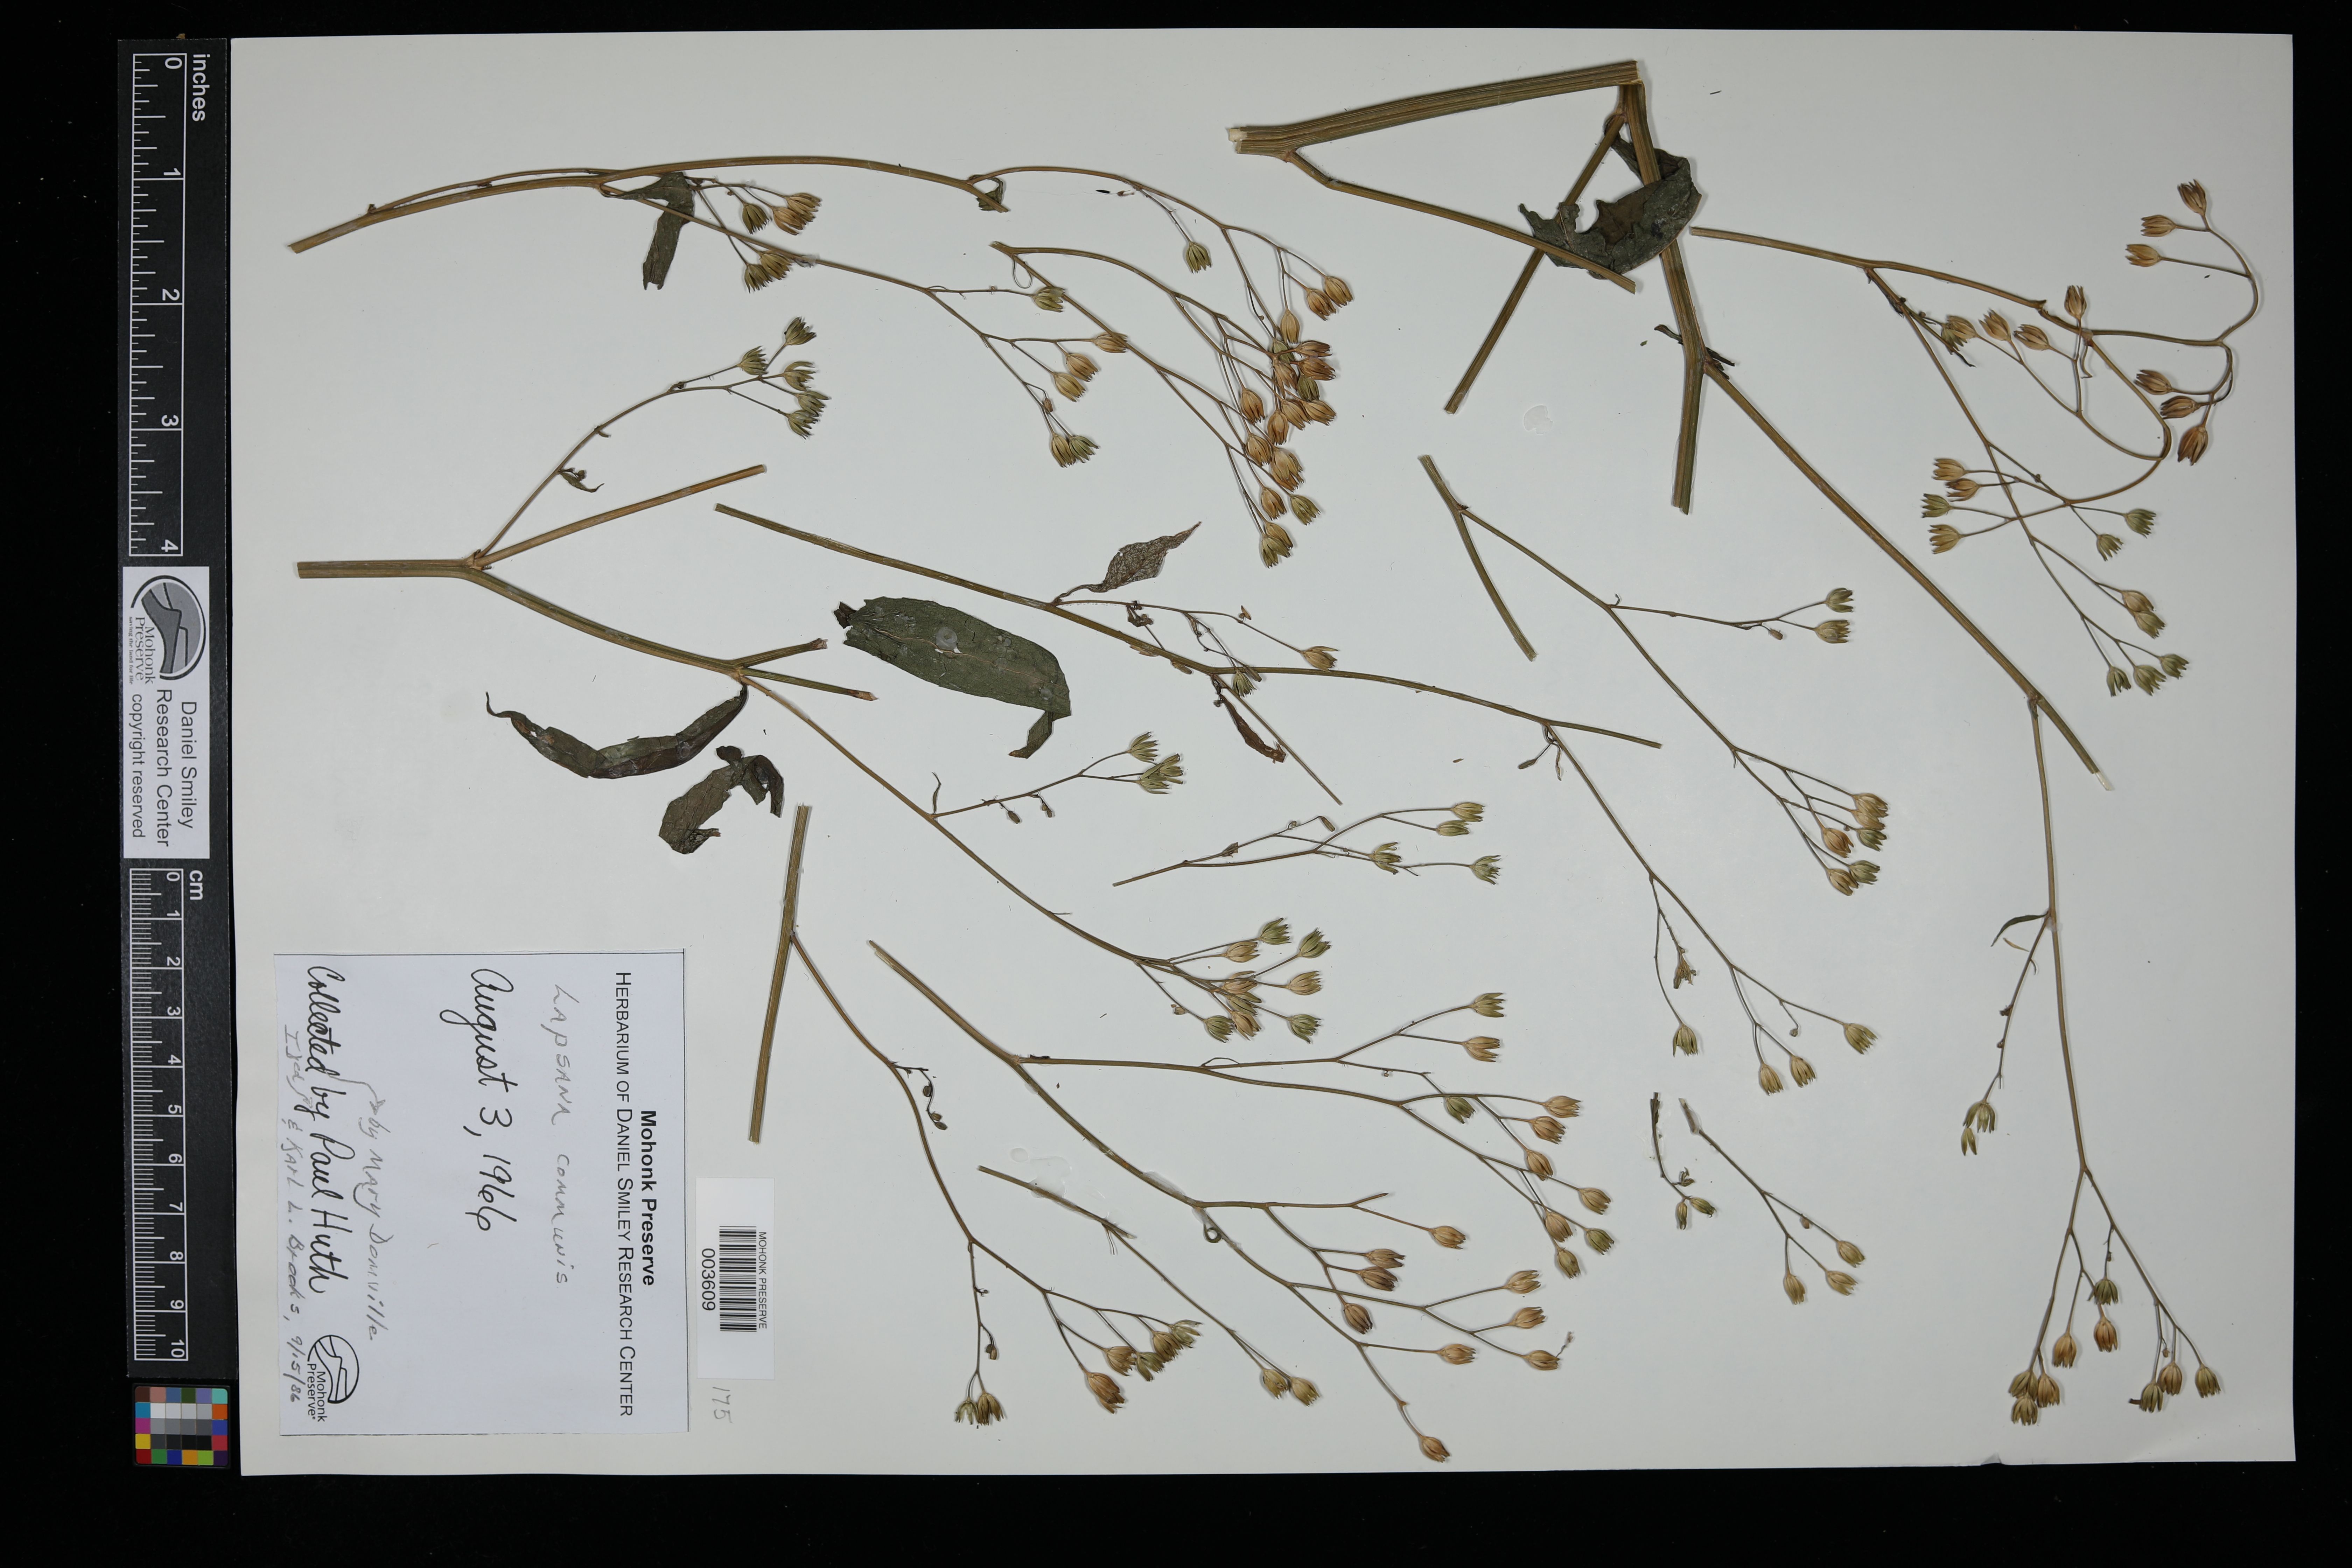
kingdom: Plantae
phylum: Tracheophyta
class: Magnoliopsida
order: Asterales
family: Asteraceae
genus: Lapsana
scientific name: Lapsana communis
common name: Nipplewort
